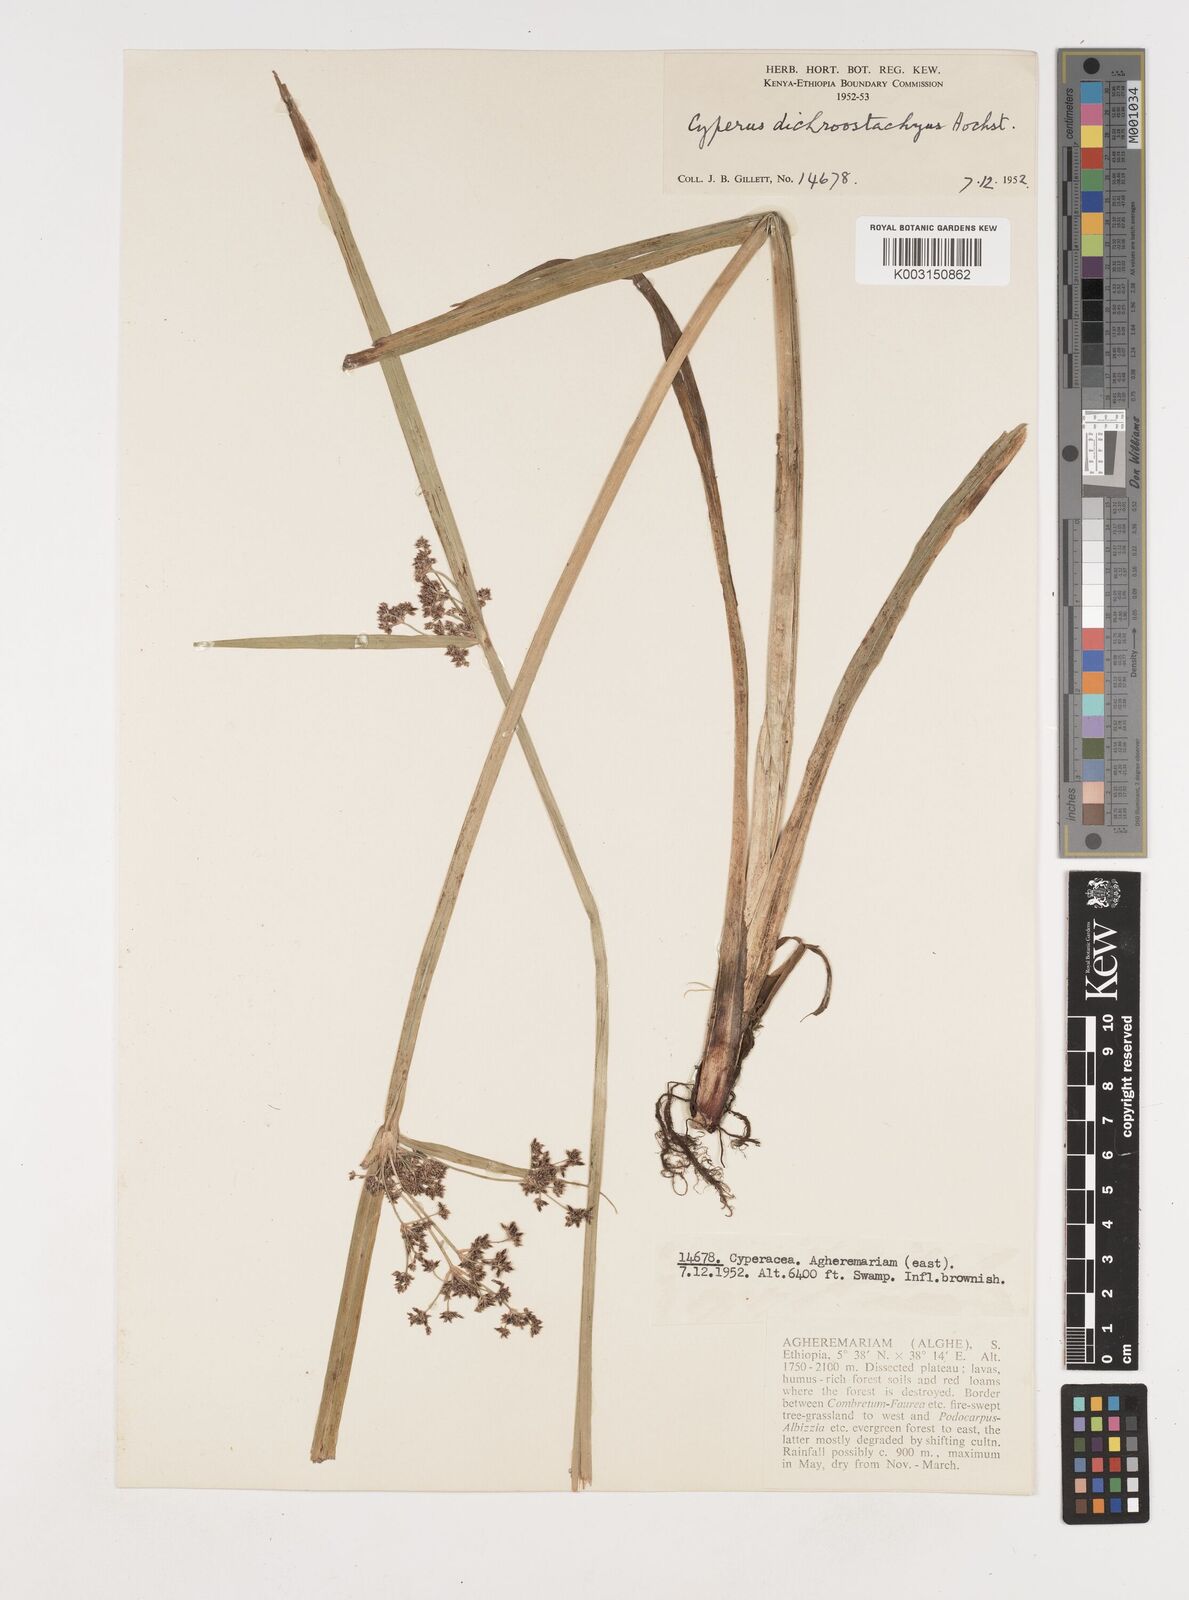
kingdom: Plantae
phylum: Tracheophyta
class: Liliopsida
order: Poales
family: Cyperaceae
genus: Cyperus
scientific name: Cyperus dichrostachyus
